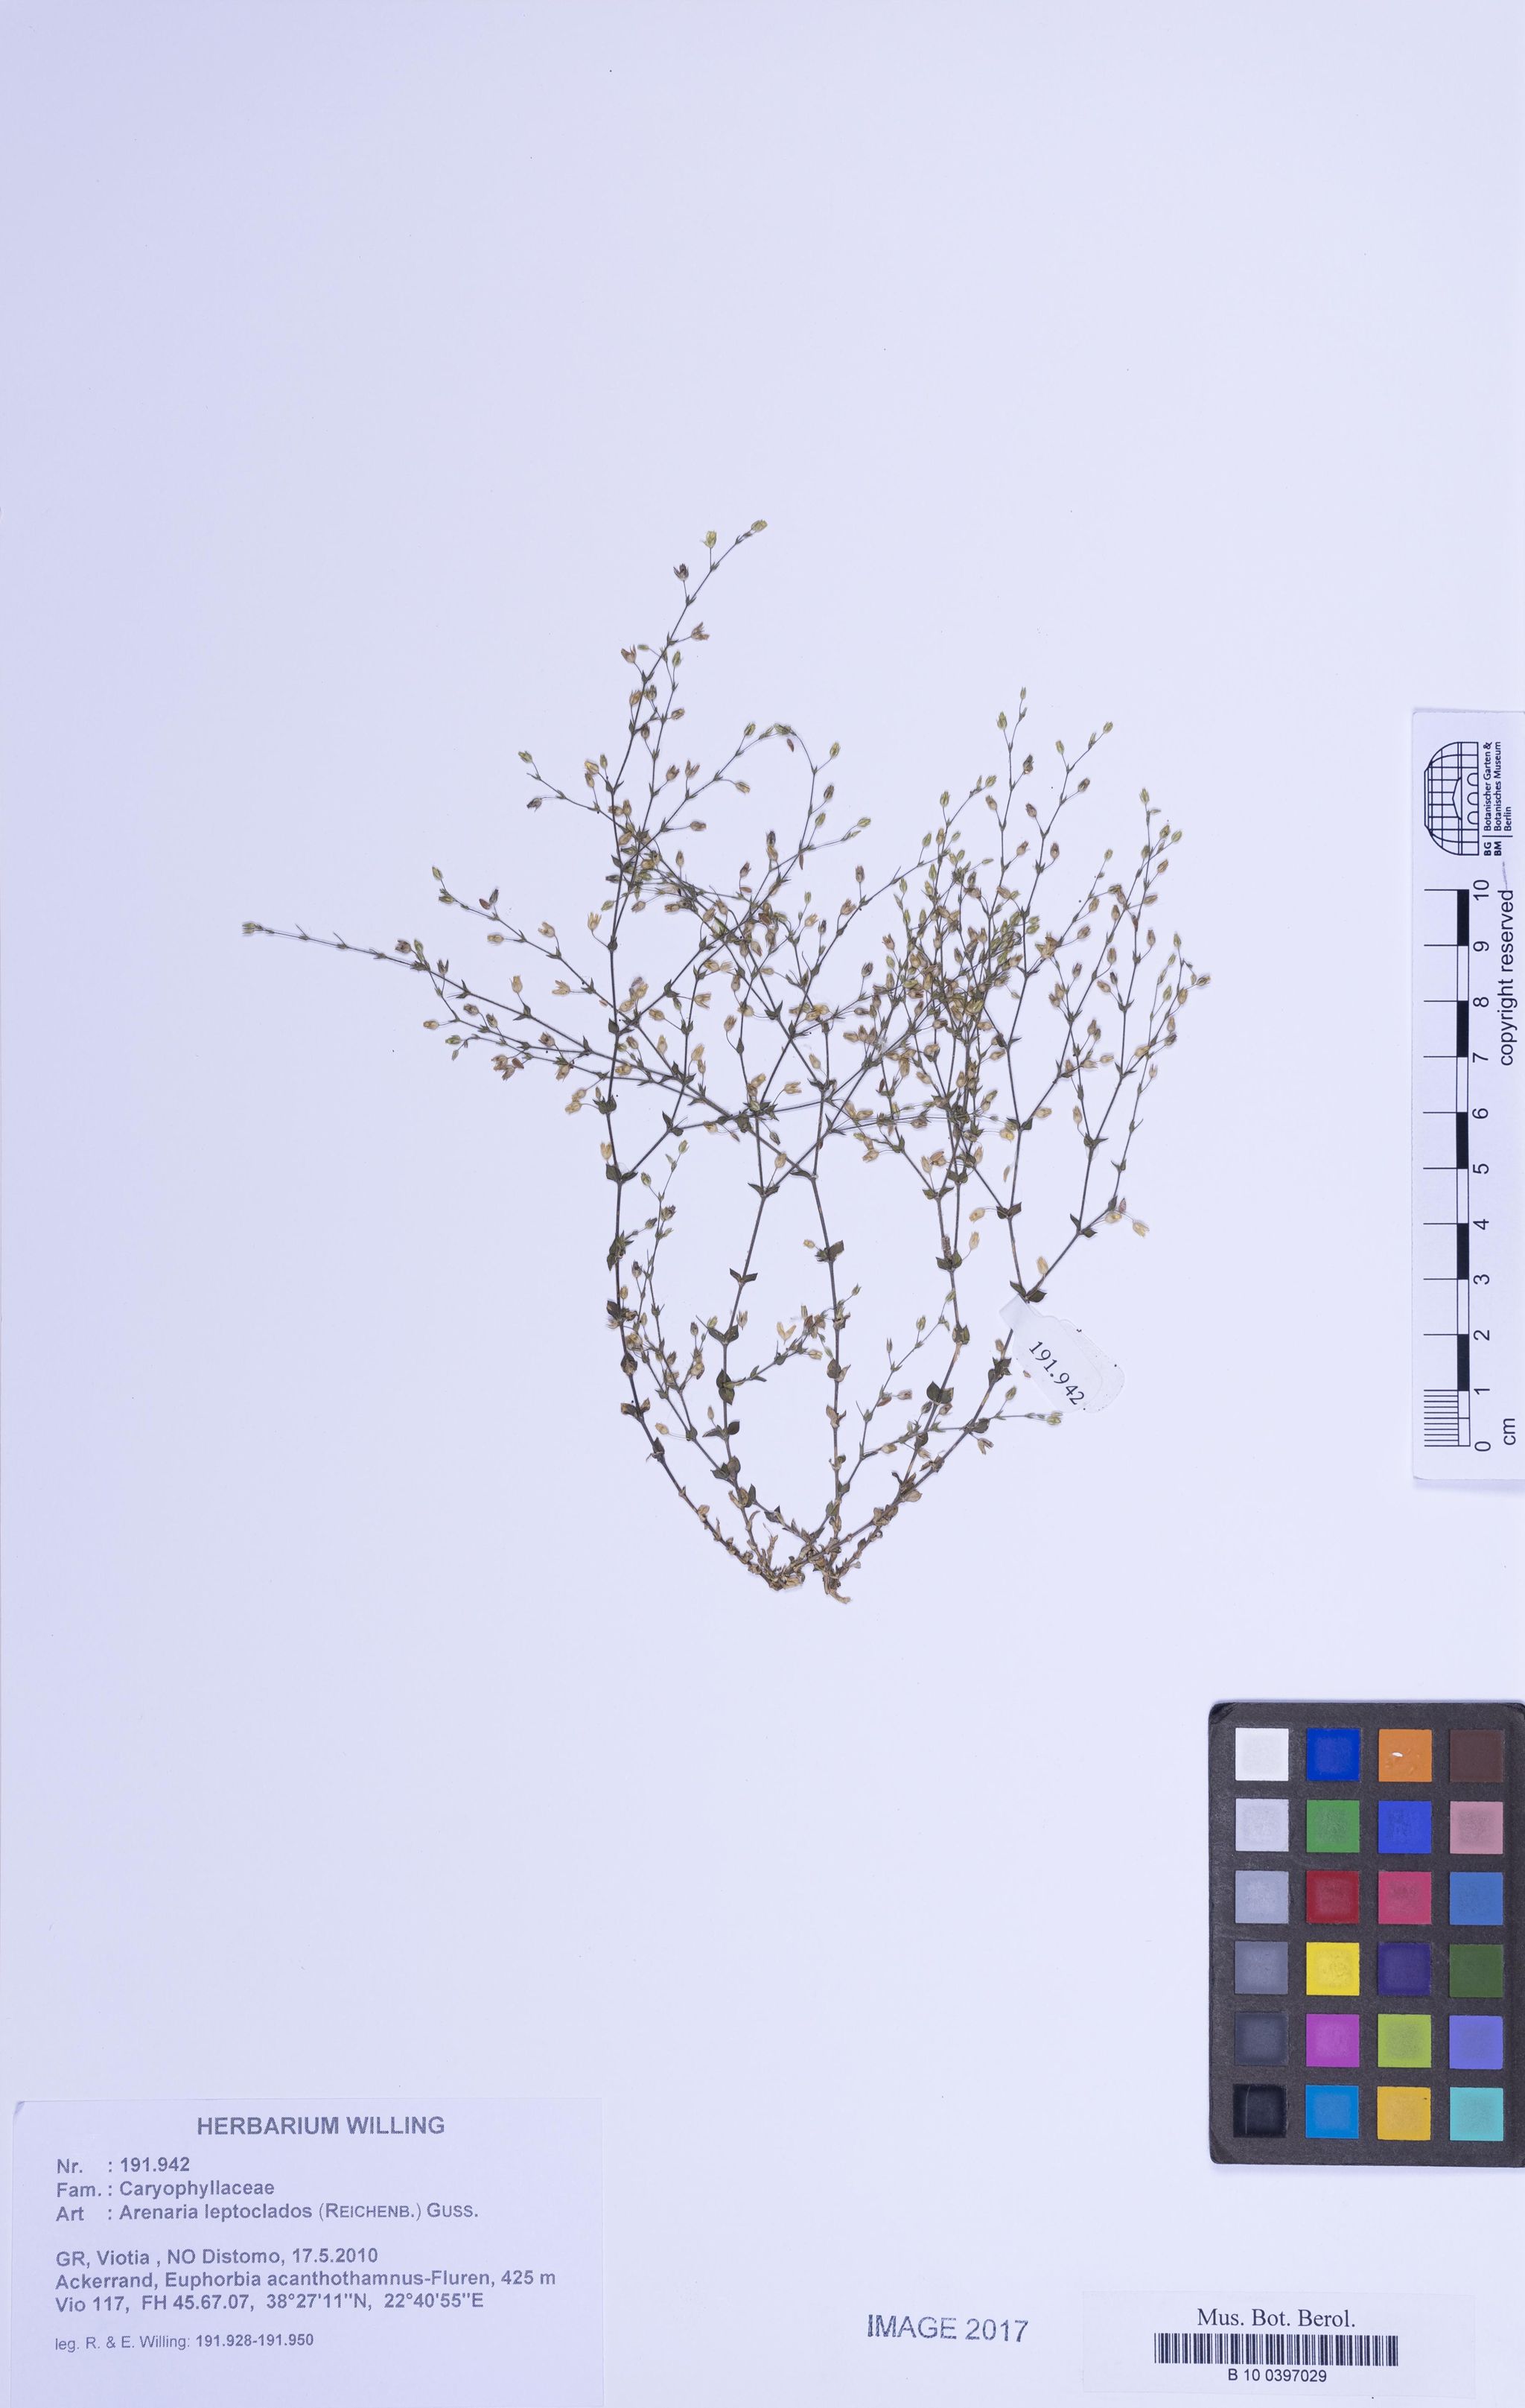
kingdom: Plantae
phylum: Tracheophyta
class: Magnoliopsida
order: Caryophyllales
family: Caryophyllaceae
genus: Arenaria
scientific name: Arenaria leptoclados
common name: Thyme-leaved sandwort
